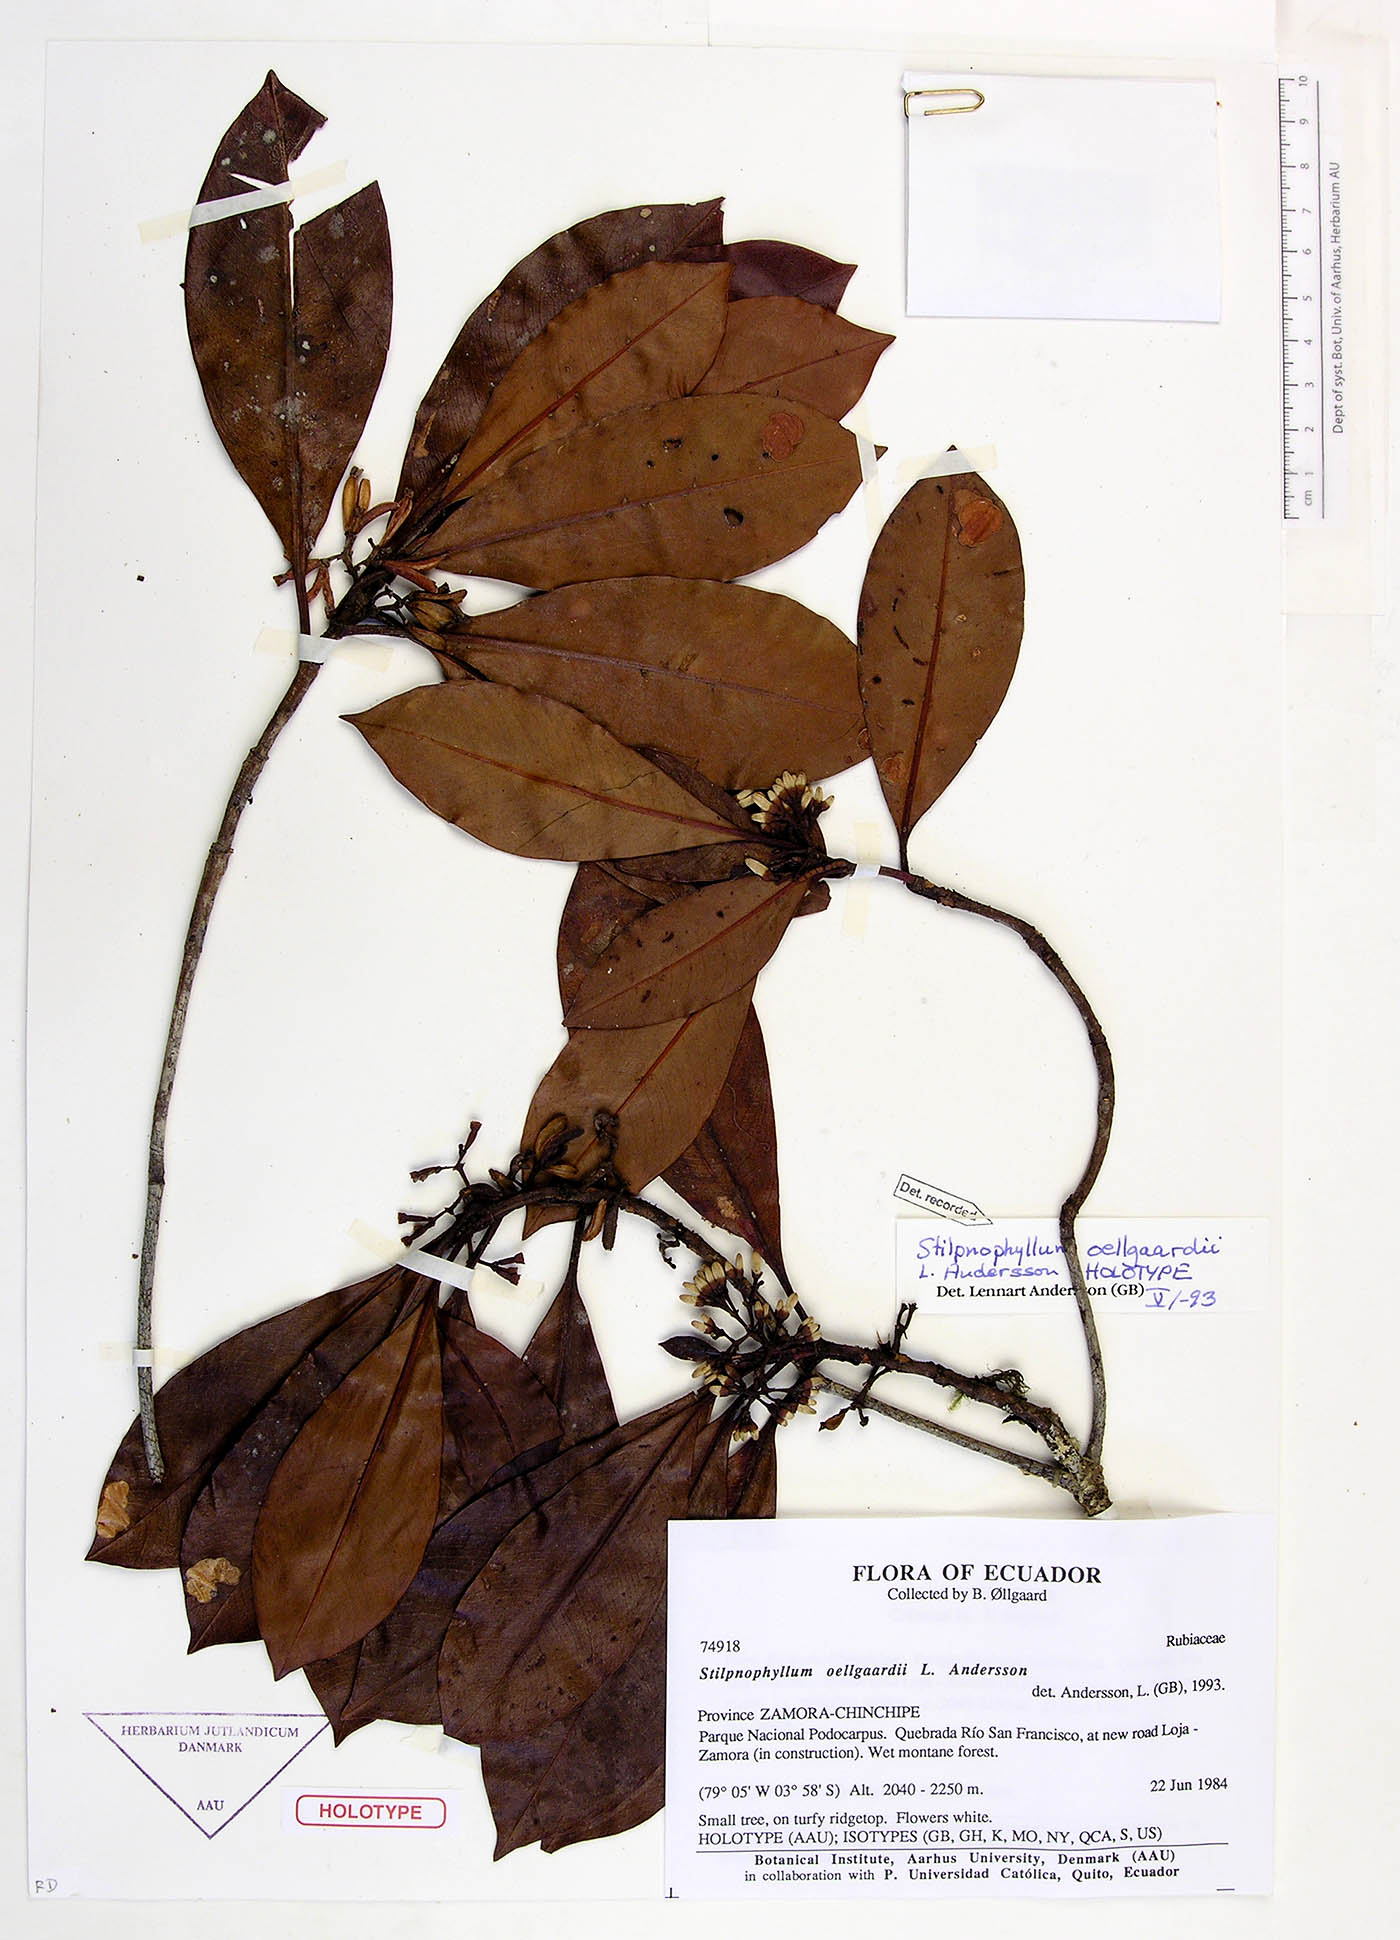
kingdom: Plantae
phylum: Tracheophyta
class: Magnoliopsida
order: Gentianales
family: Rubiaceae
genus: Stilpnophyllum
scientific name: Stilpnophyllum oellgaardii
